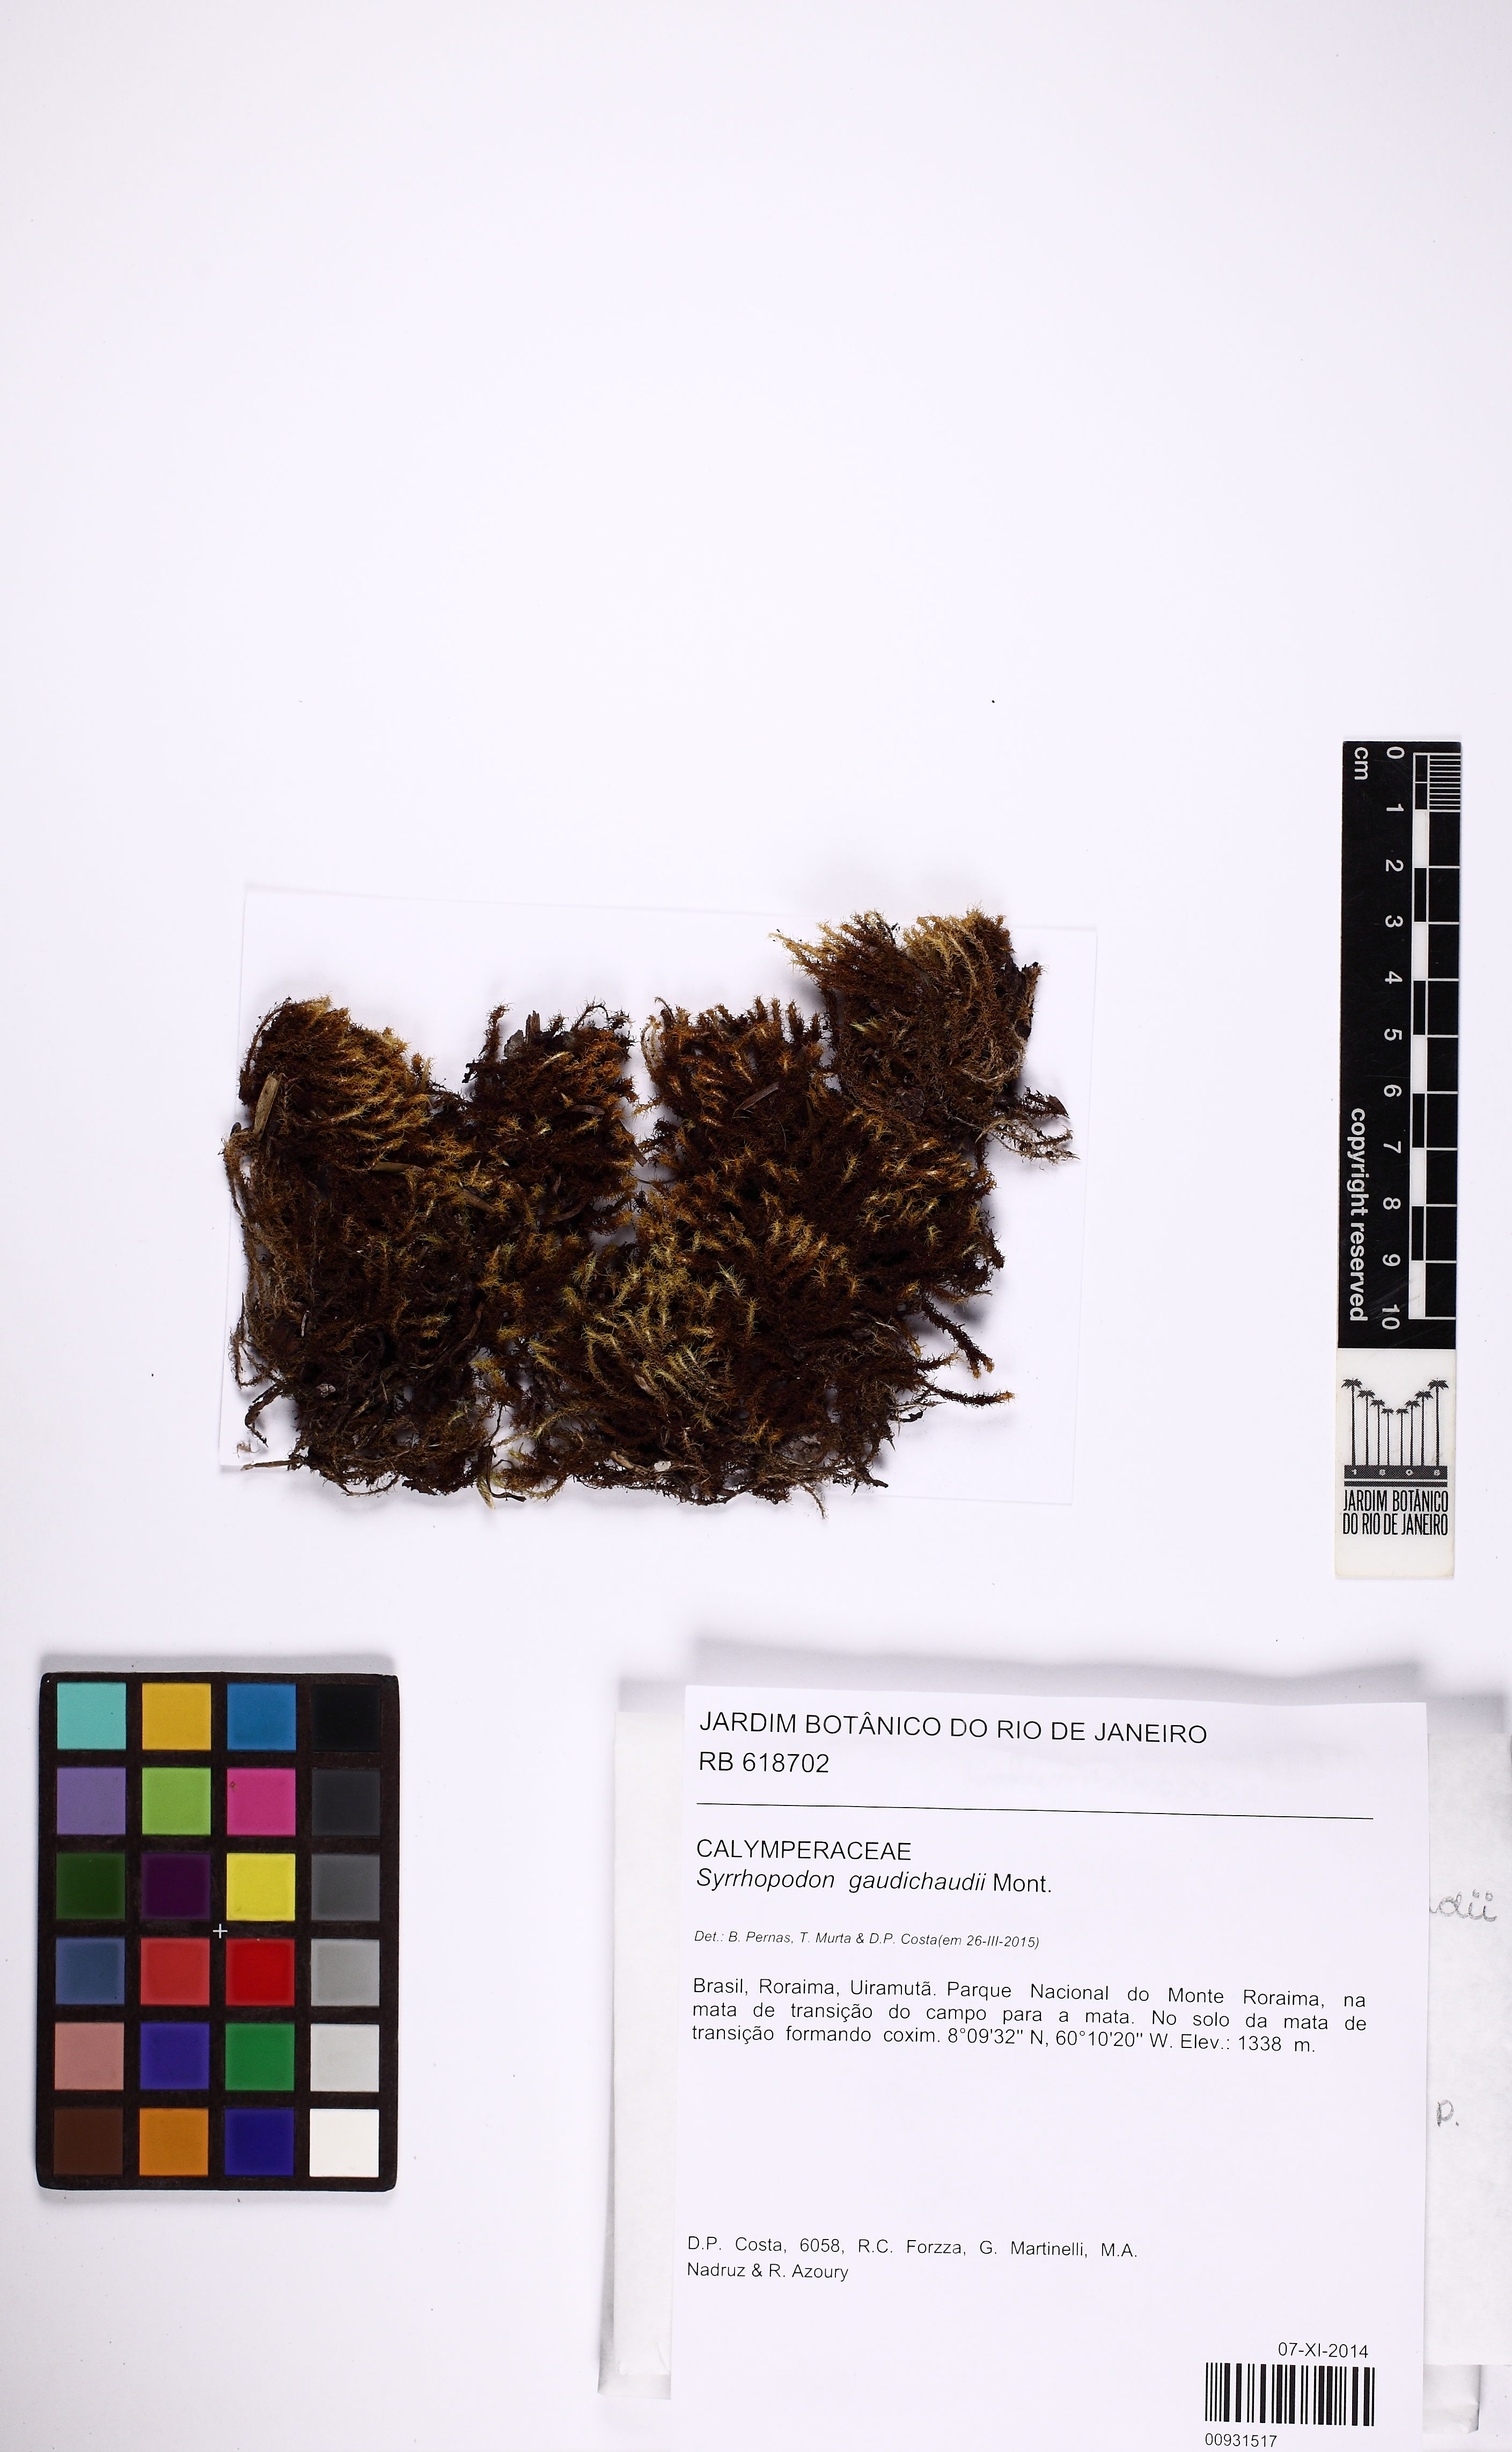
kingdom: Plantae
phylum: Bryophyta
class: Bryopsida
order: Dicranales
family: Calymperaceae
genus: Syrrhopodon
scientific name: Syrrhopodon gaudichaudii
